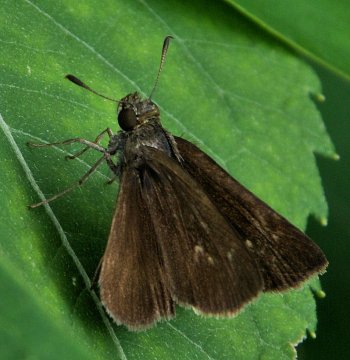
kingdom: Animalia
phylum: Arthropoda
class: Insecta
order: Lepidoptera
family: Hesperiidae
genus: Euphyes
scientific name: Euphyes vestris
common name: Dun Skipper
